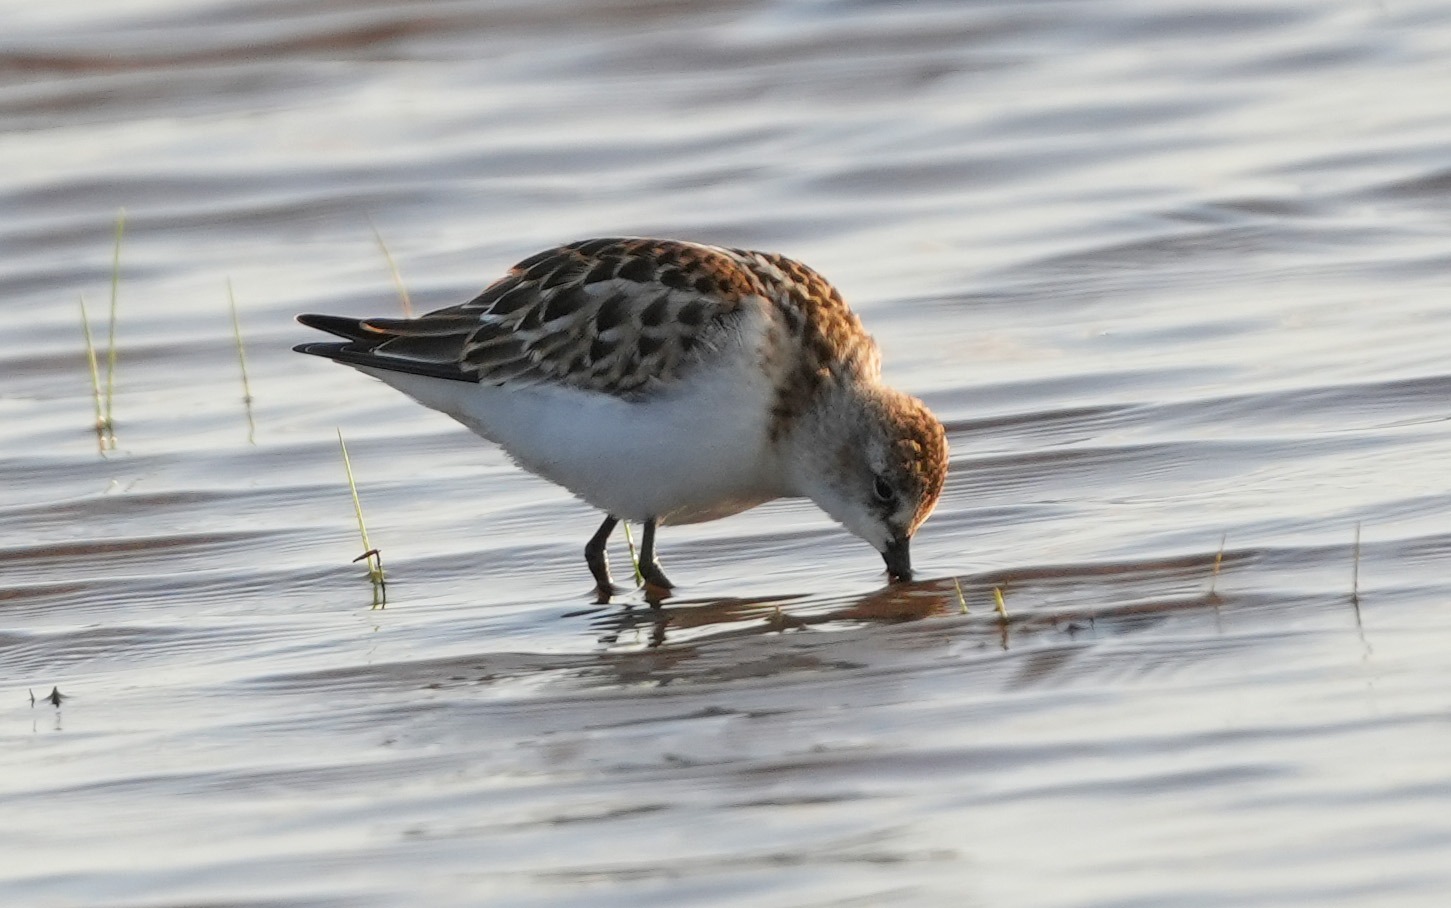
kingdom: Animalia
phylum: Chordata
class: Aves
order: Charadriiformes
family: Scolopacidae
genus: Calidris
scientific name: Calidris minuta
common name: Dværgryle
